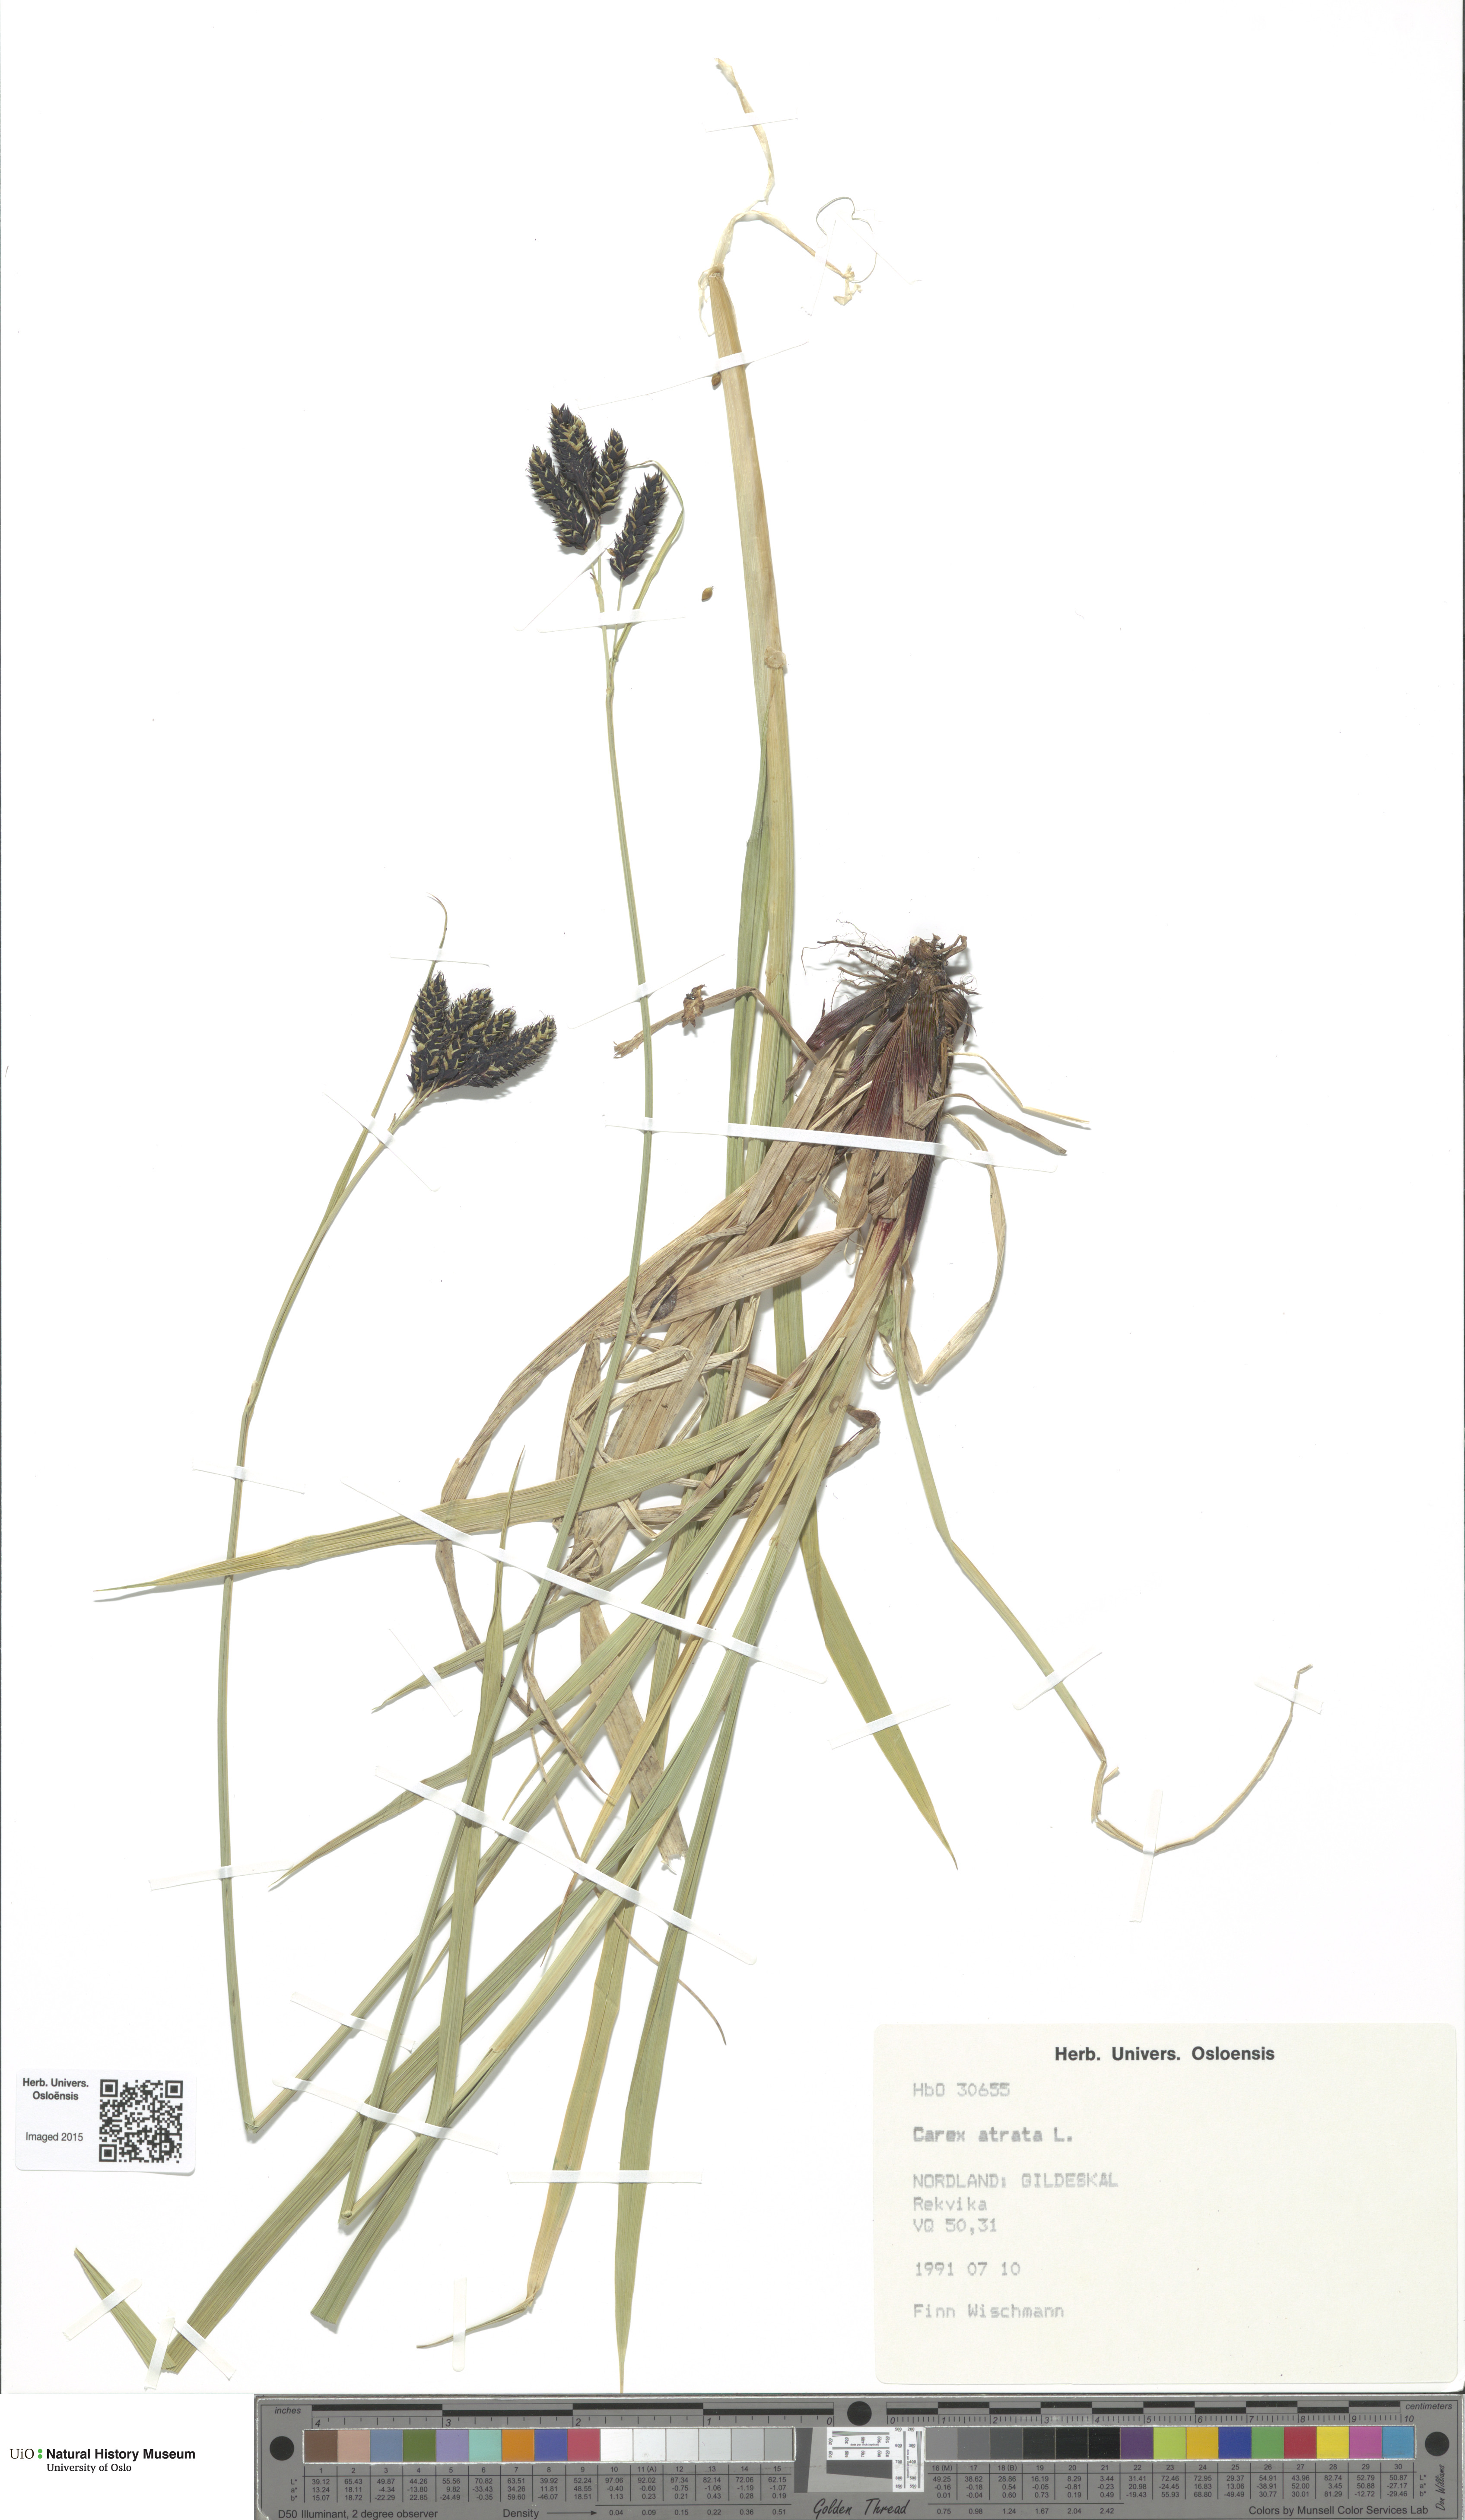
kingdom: Plantae
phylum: Tracheophyta
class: Liliopsida
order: Poales
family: Cyperaceae
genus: Carex
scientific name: Carex atrata
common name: Black alpine sedge
